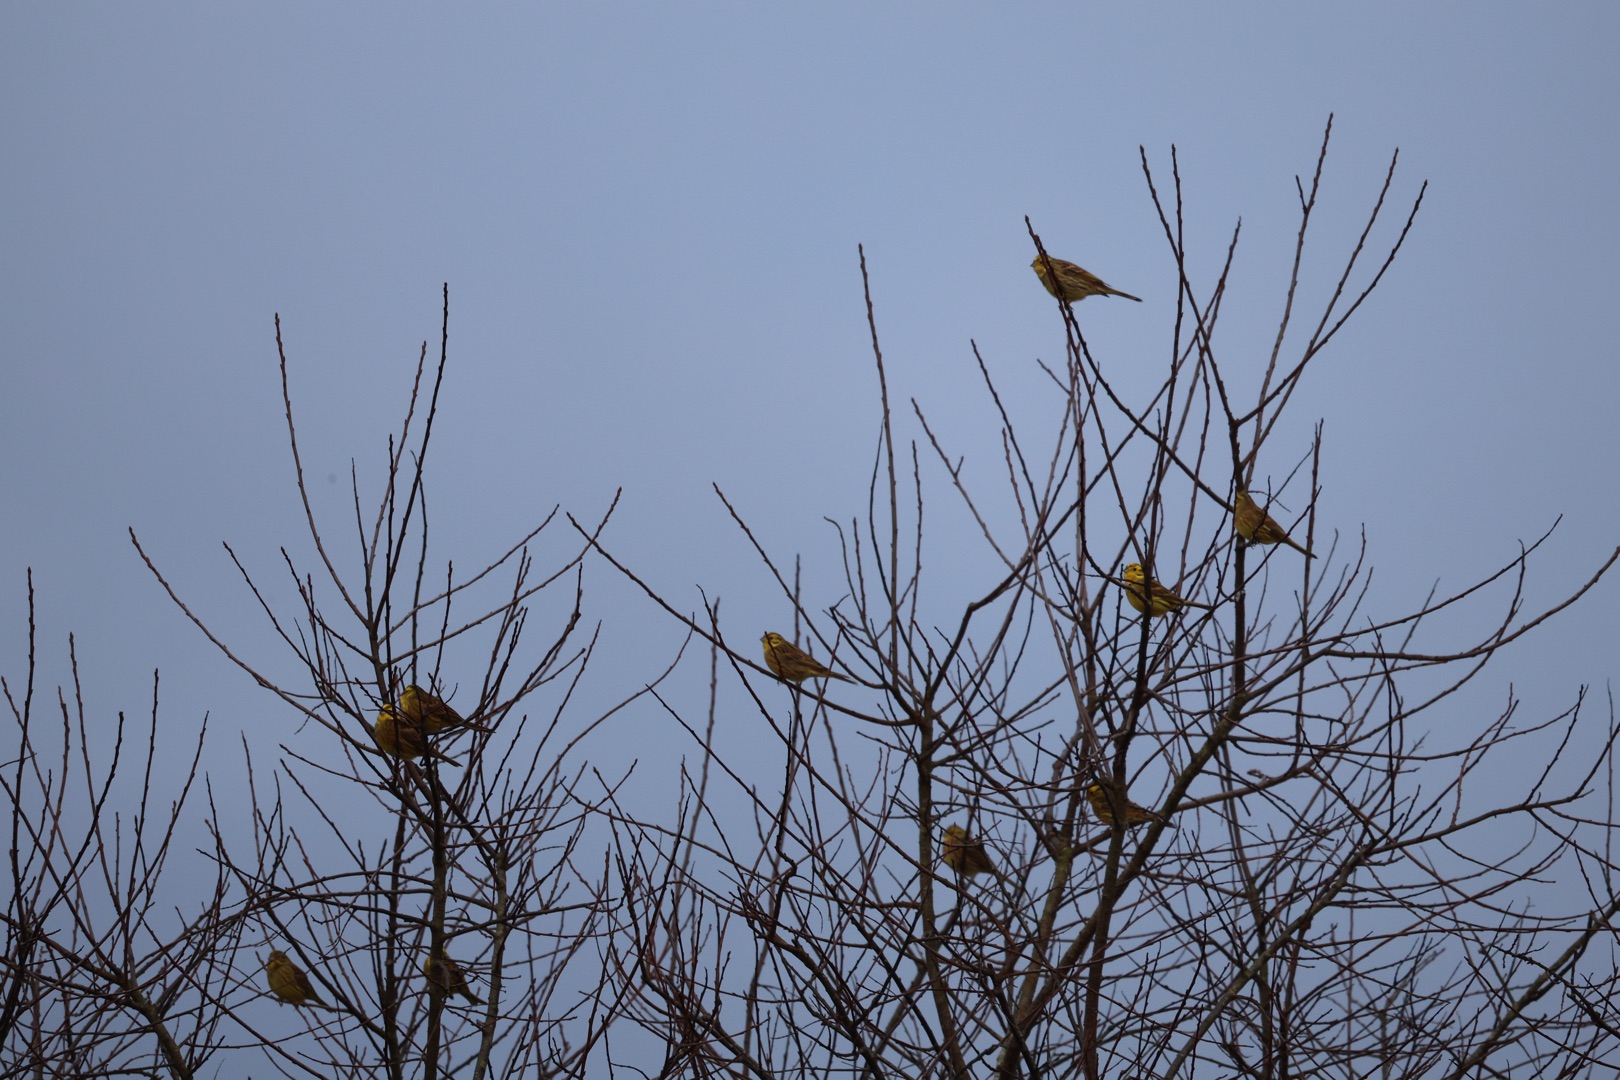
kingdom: Animalia
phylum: Chordata
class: Aves
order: Passeriformes
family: Emberizidae
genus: Emberiza
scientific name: Emberiza citrinella
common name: Gulspurv
